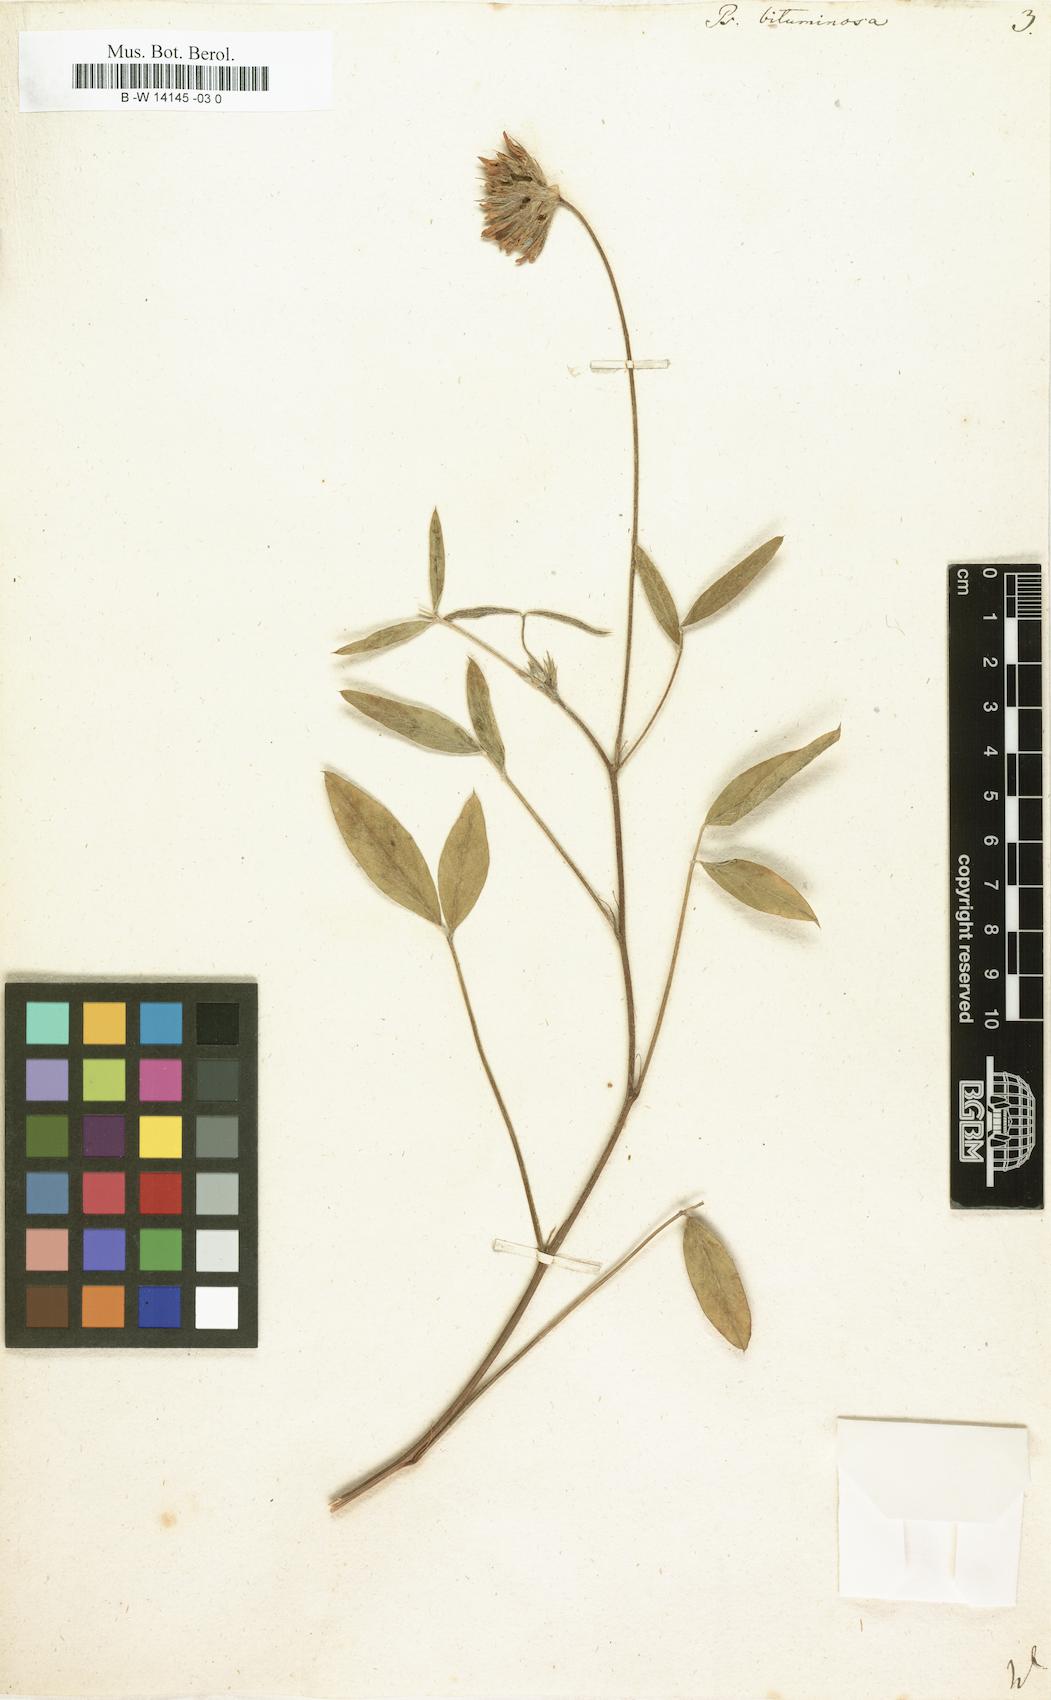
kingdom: Plantae
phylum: Tracheophyta
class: Magnoliopsida
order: Fabales
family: Fabaceae
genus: Bituminaria
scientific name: Bituminaria bituminosa
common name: Arabian pea
